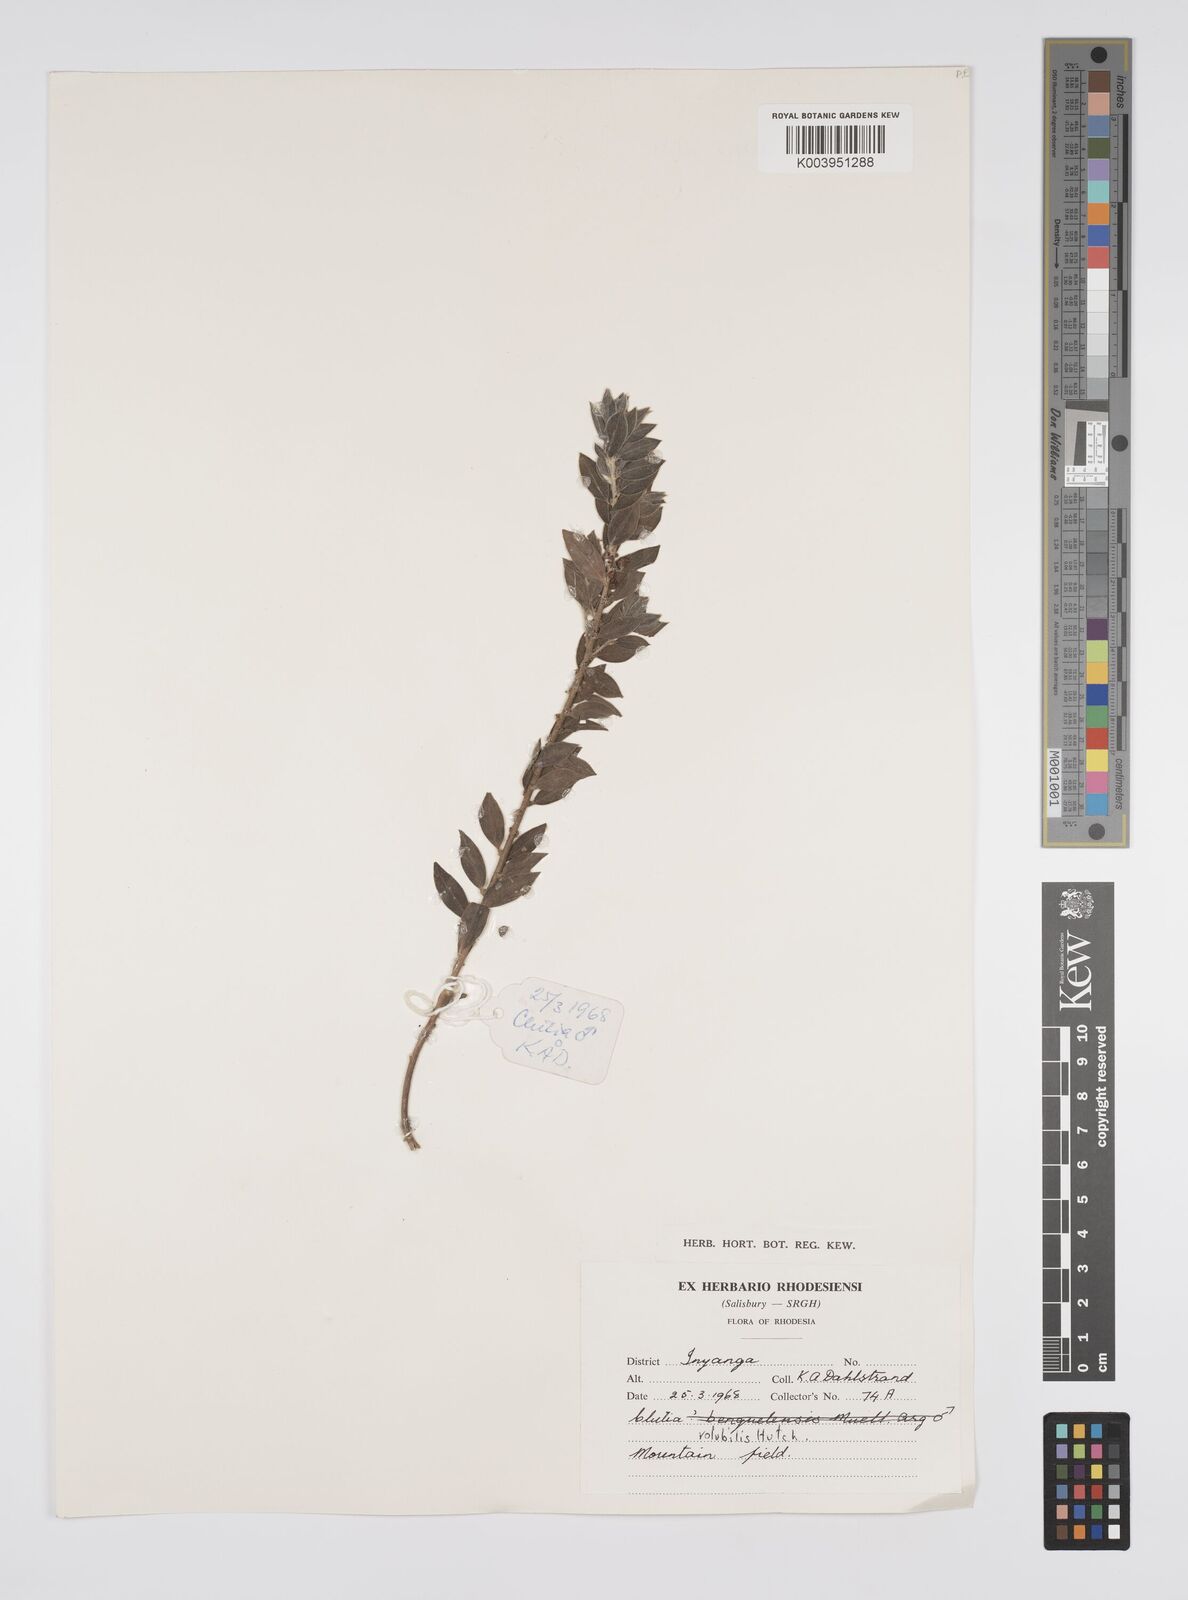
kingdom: Plantae
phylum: Tracheophyta
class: Magnoliopsida
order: Malpighiales
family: Peraceae
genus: Clutia
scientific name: Clutia
